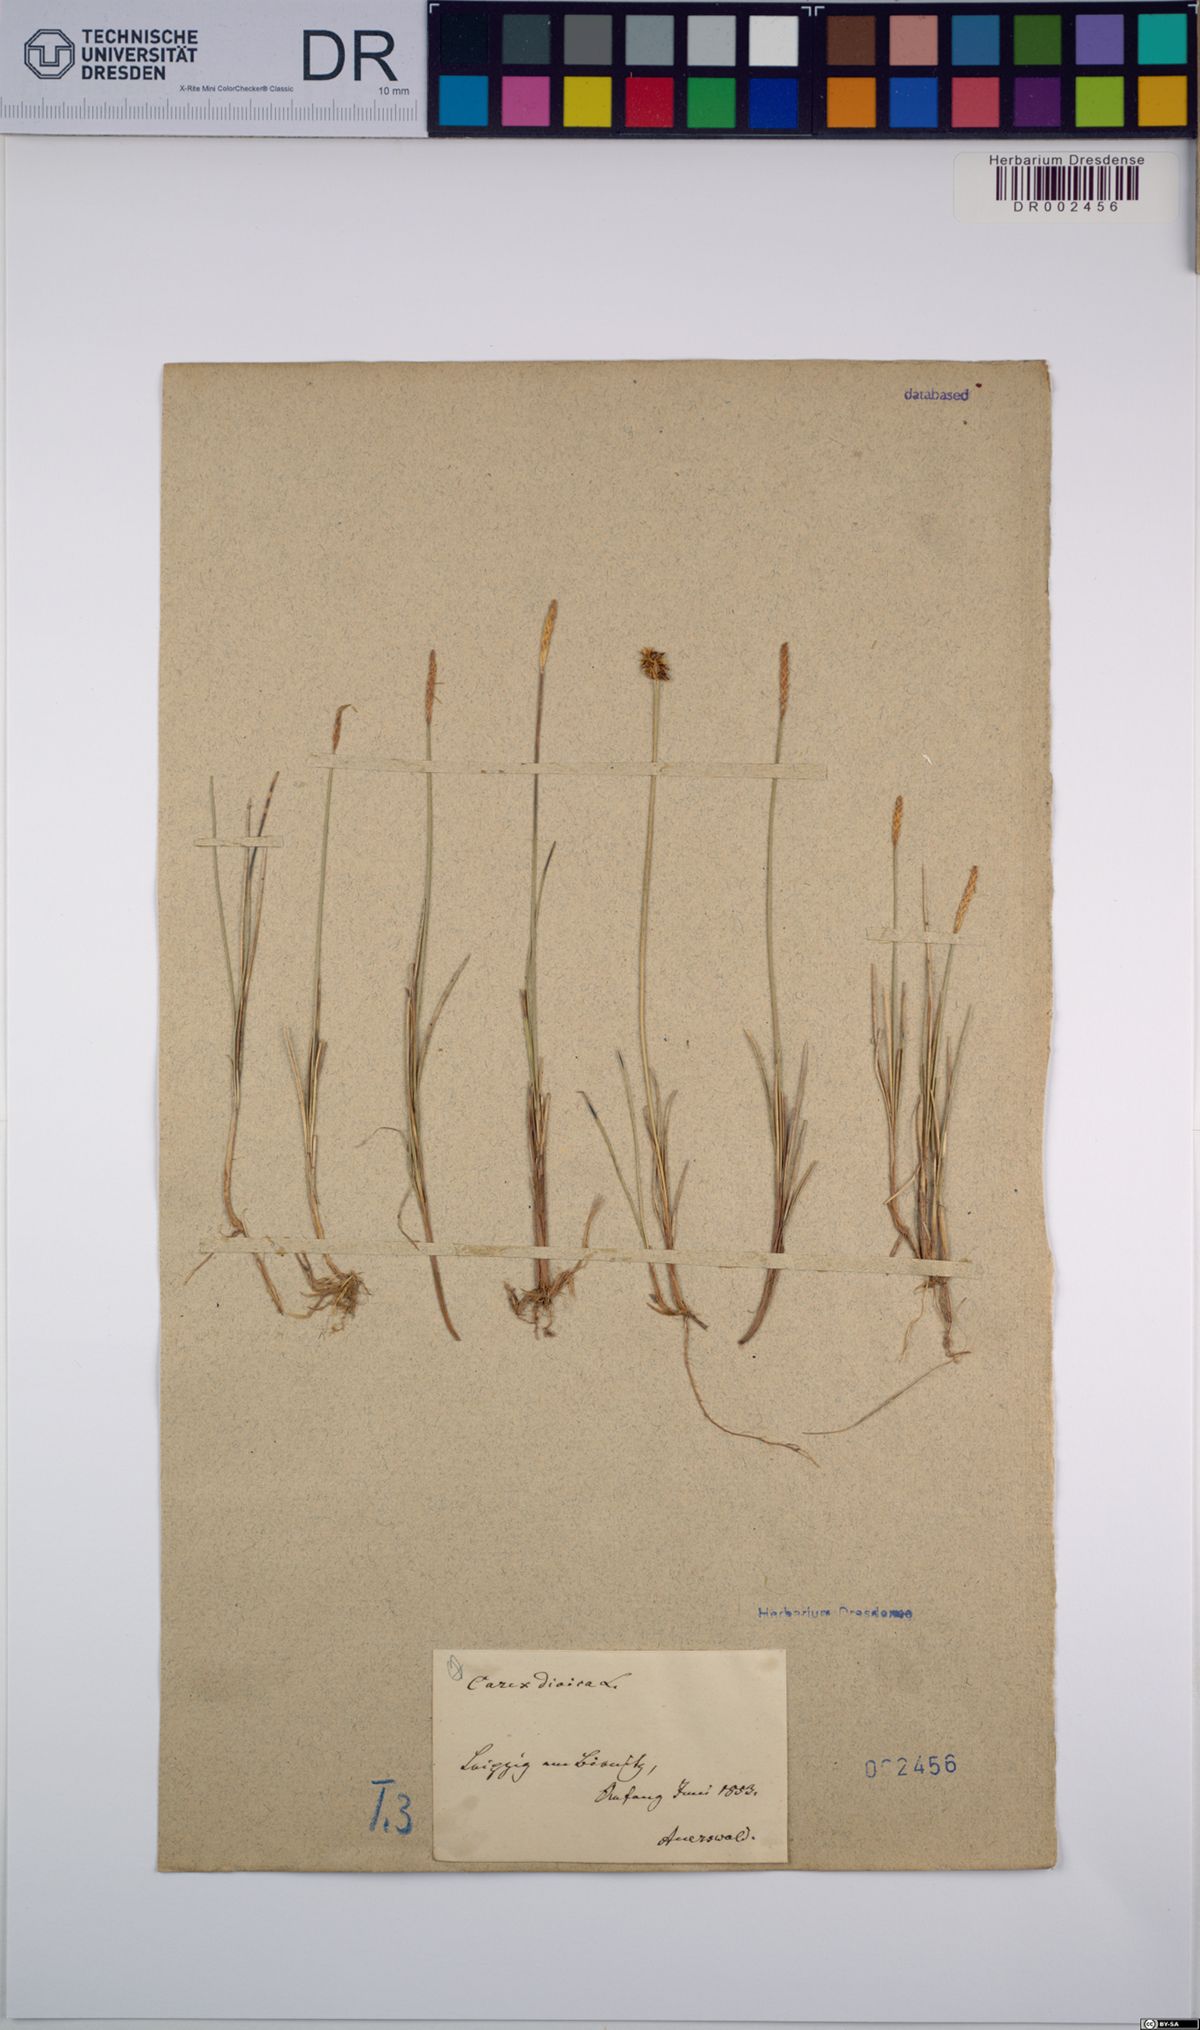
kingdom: Plantae
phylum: Tracheophyta
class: Liliopsida
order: Poales
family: Cyperaceae
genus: Carex
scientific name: Carex dioica
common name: Dioecious sedge
